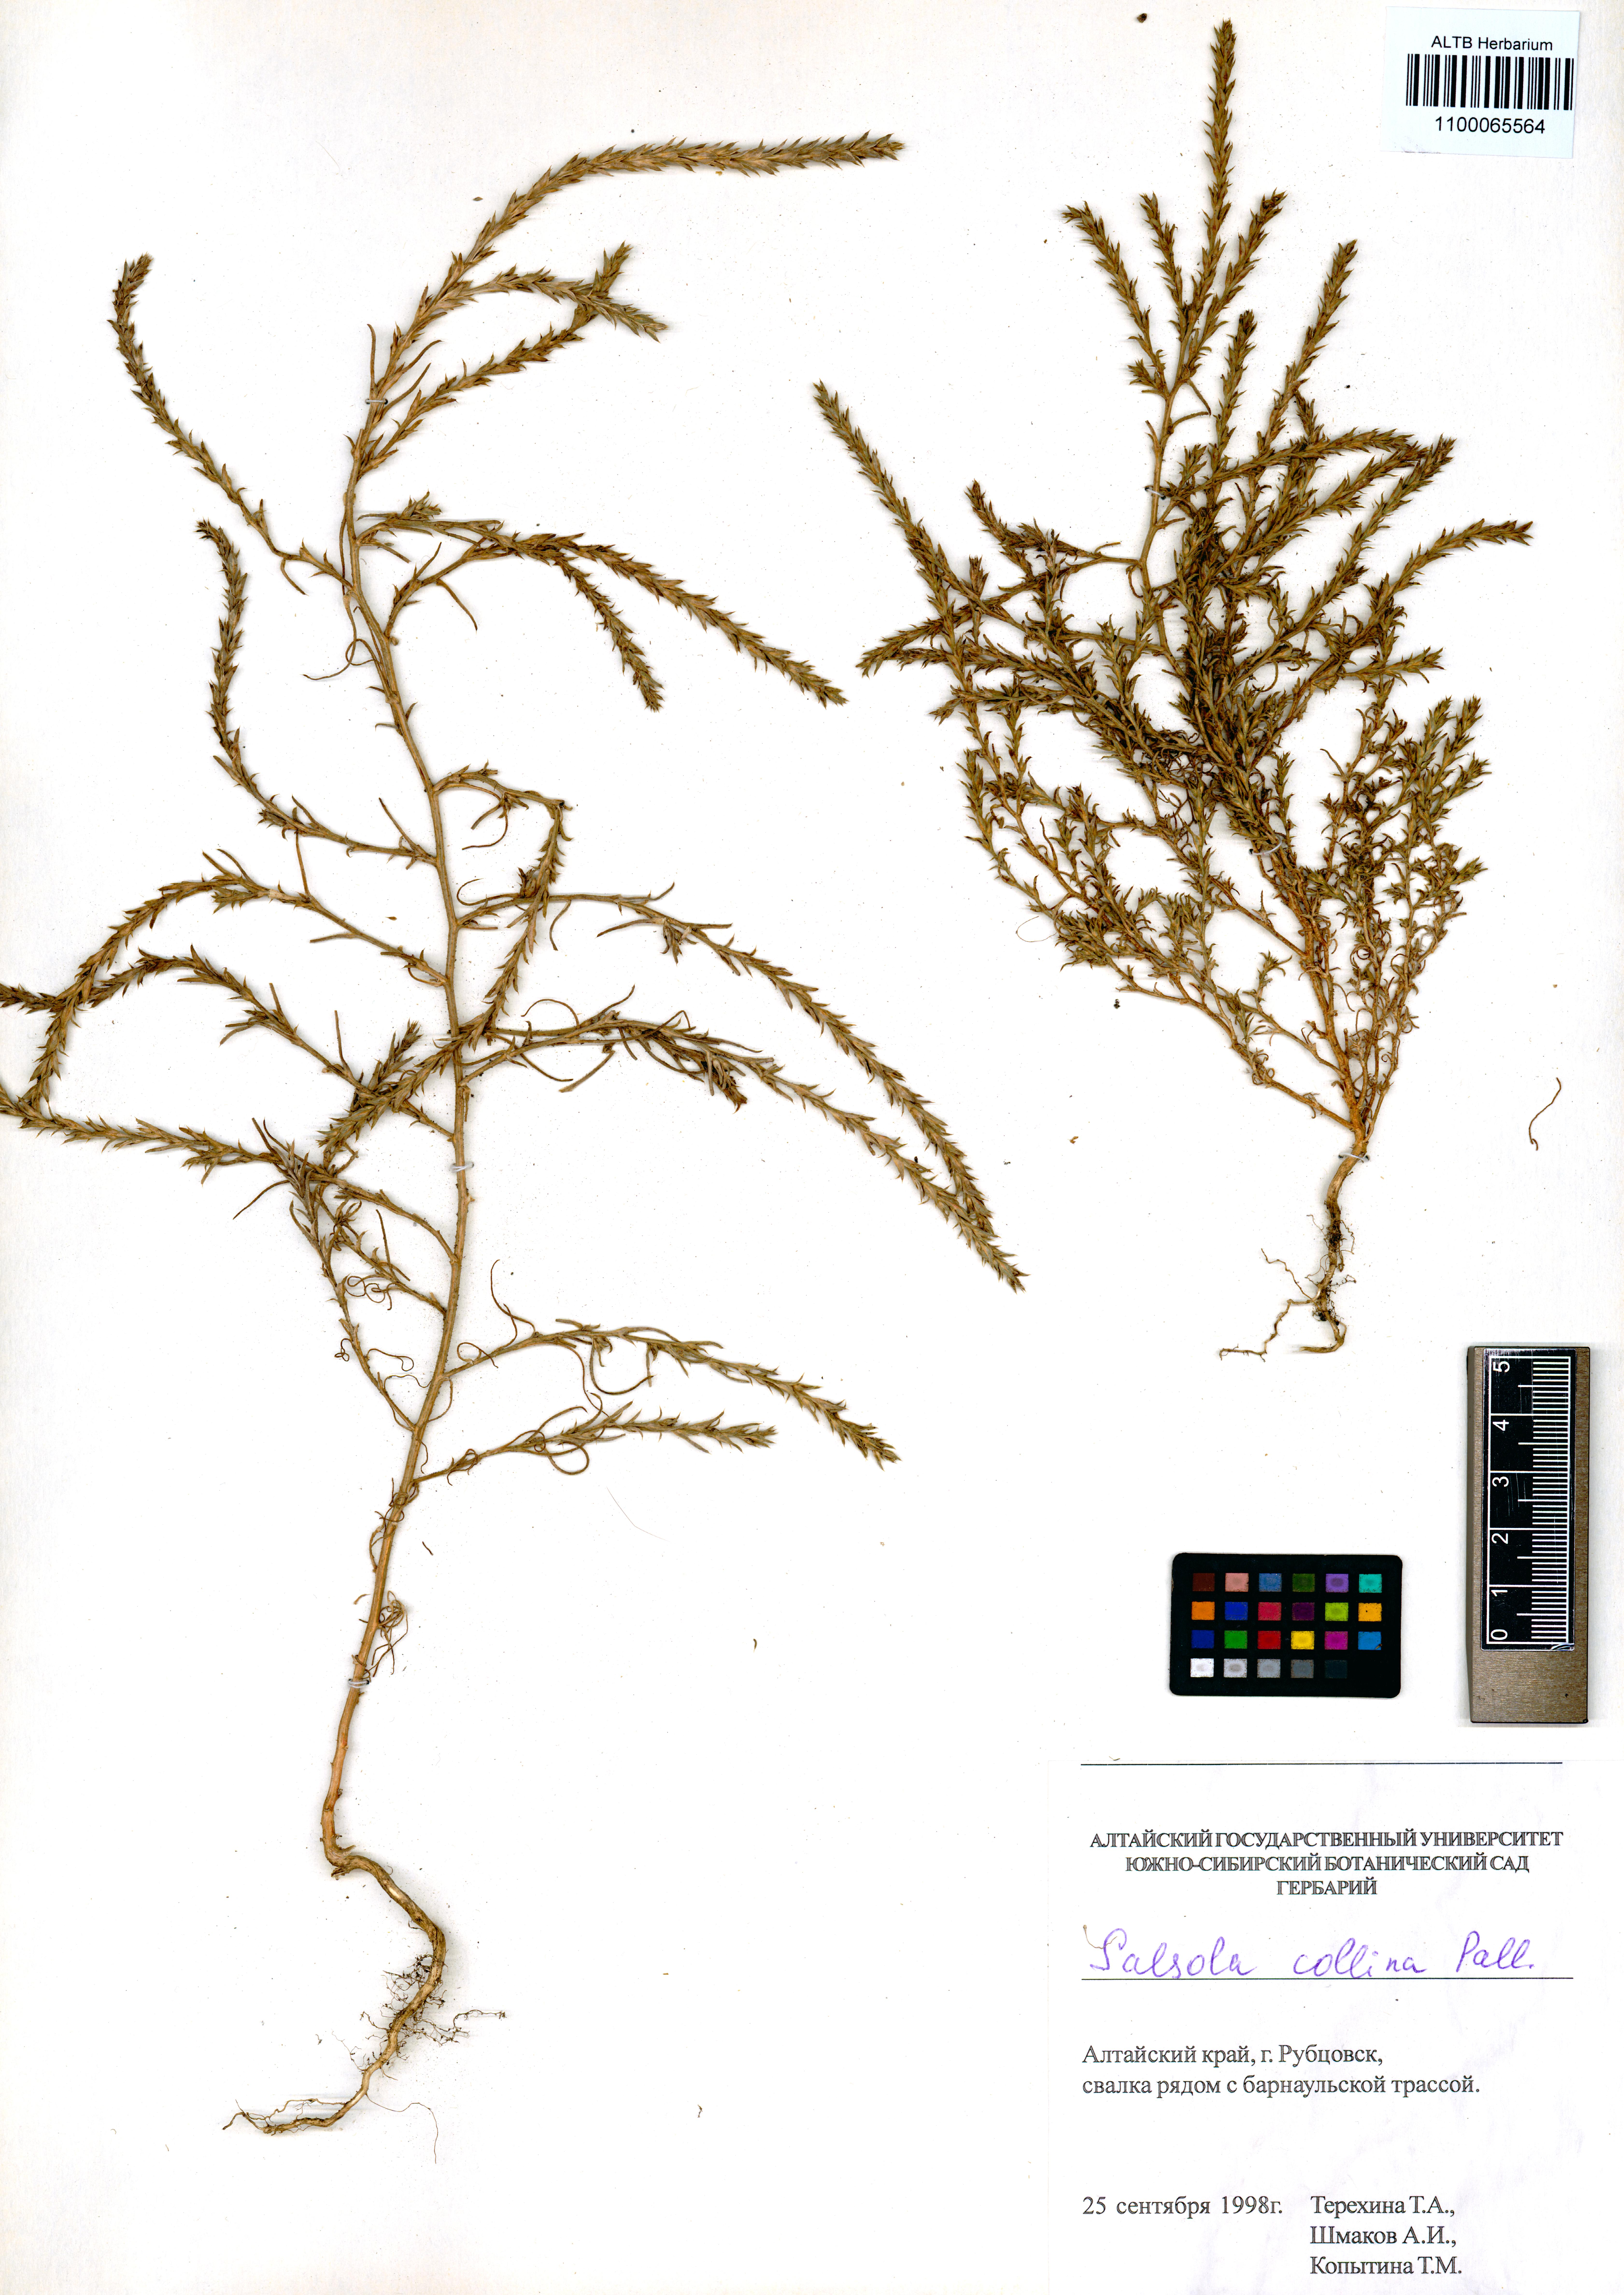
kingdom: Plantae
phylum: Tracheophyta
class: Magnoliopsida
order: Caryophyllales
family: Amaranthaceae
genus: Salsola
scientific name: Salsola collina
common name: Tumbleweed
